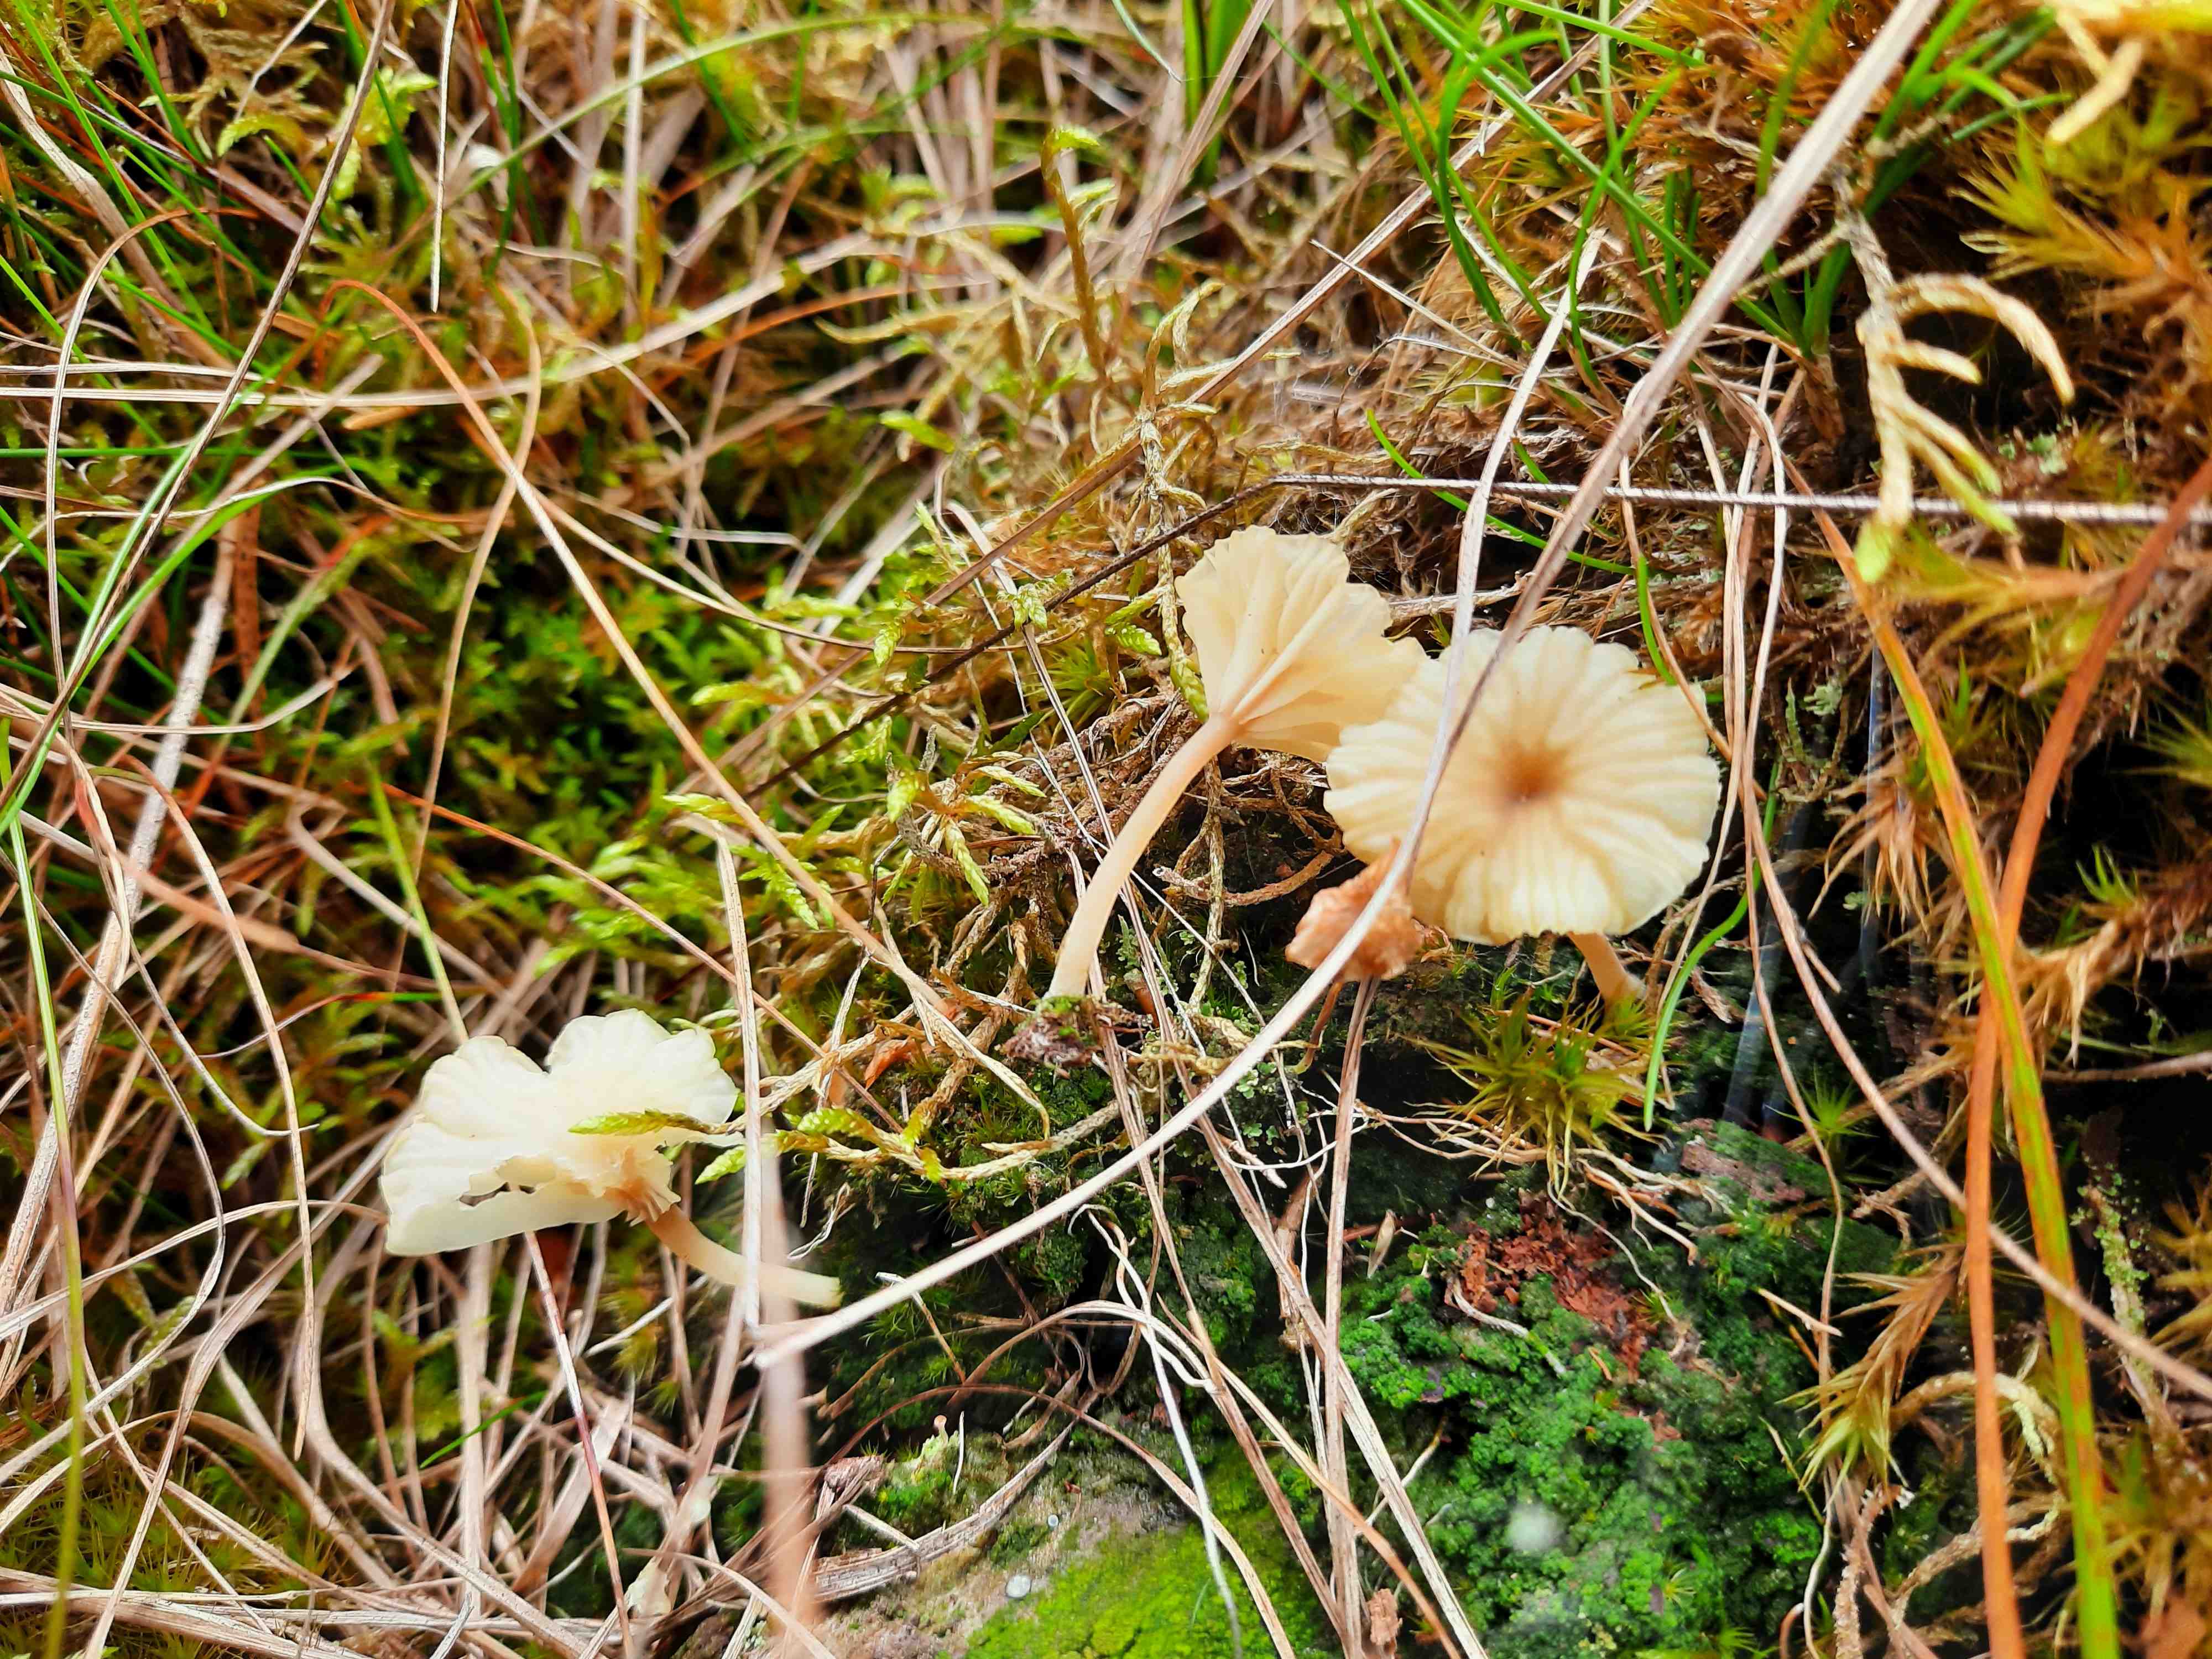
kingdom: Fungi
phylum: Basidiomycota
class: Agaricomycetes
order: Agaricales
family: Hygrophoraceae
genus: Lichenomphalia
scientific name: Lichenomphalia umbellifera
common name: tørve-lavhat
